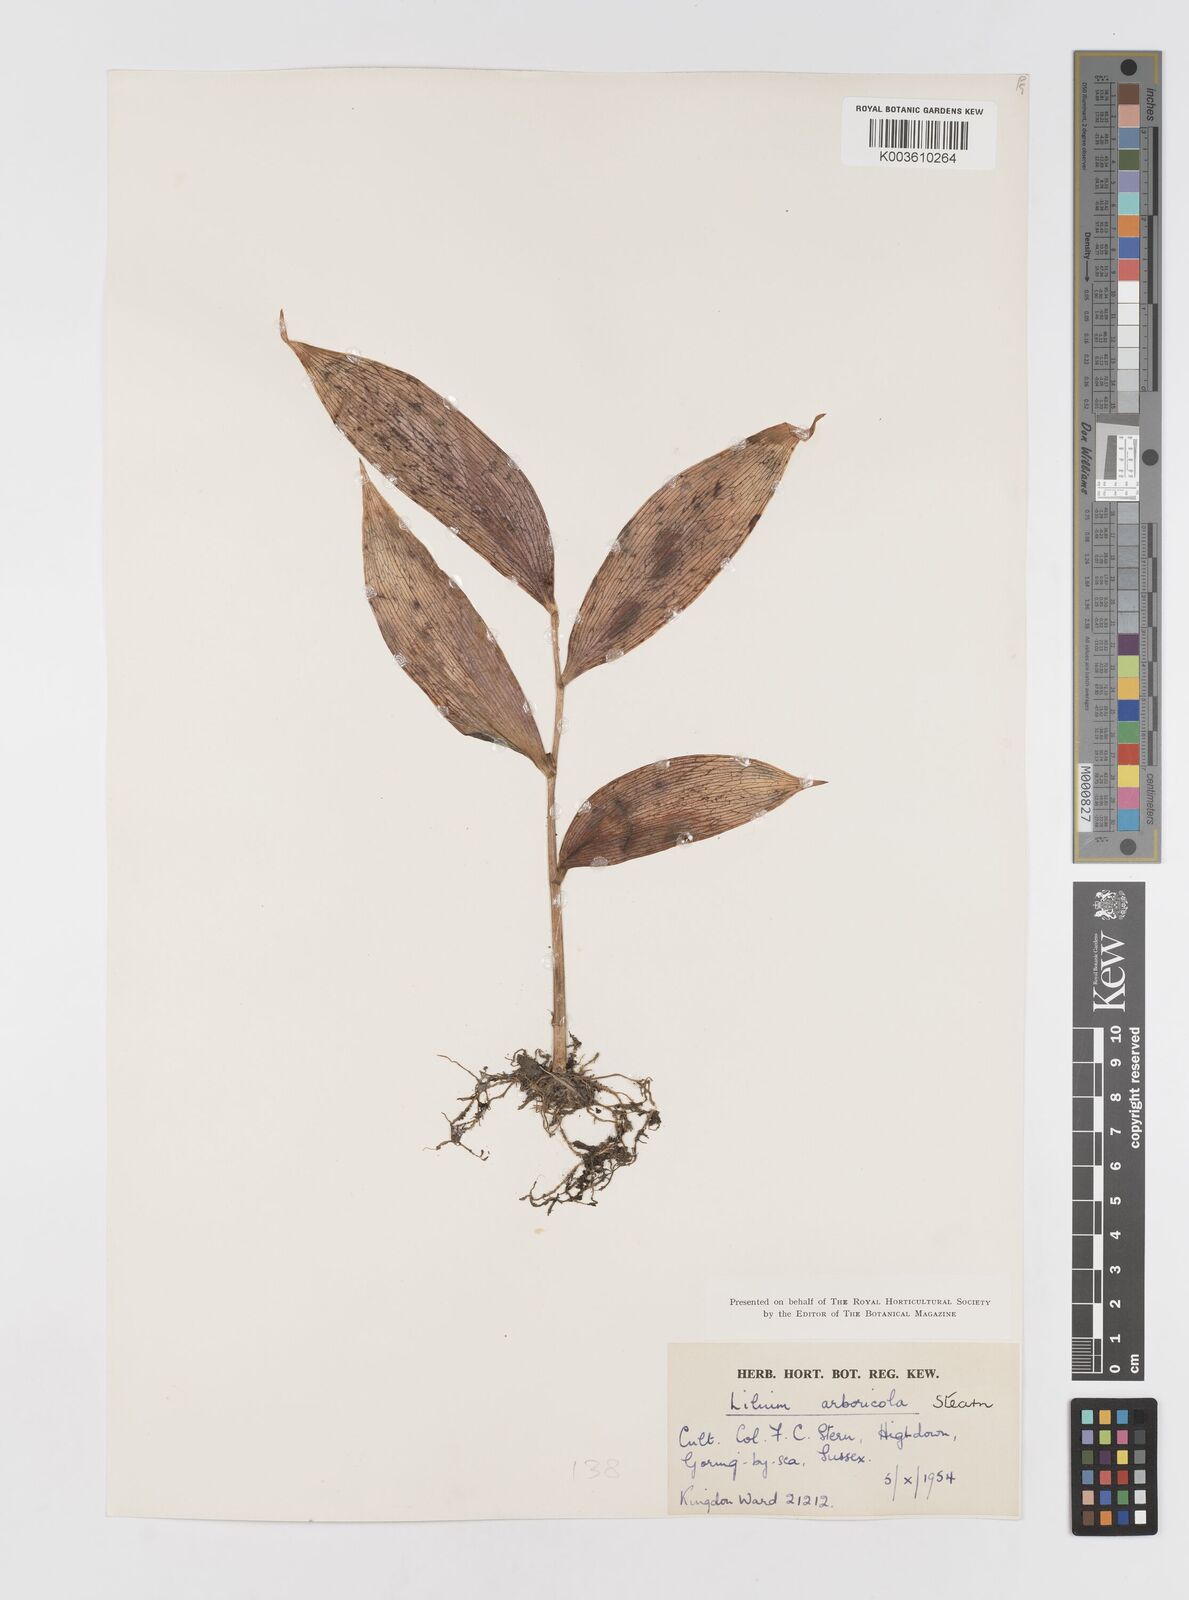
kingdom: Plantae
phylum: Tracheophyta
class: Liliopsida
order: Liliales
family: Liliaceae
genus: Lilium
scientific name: Lilium arboricola
